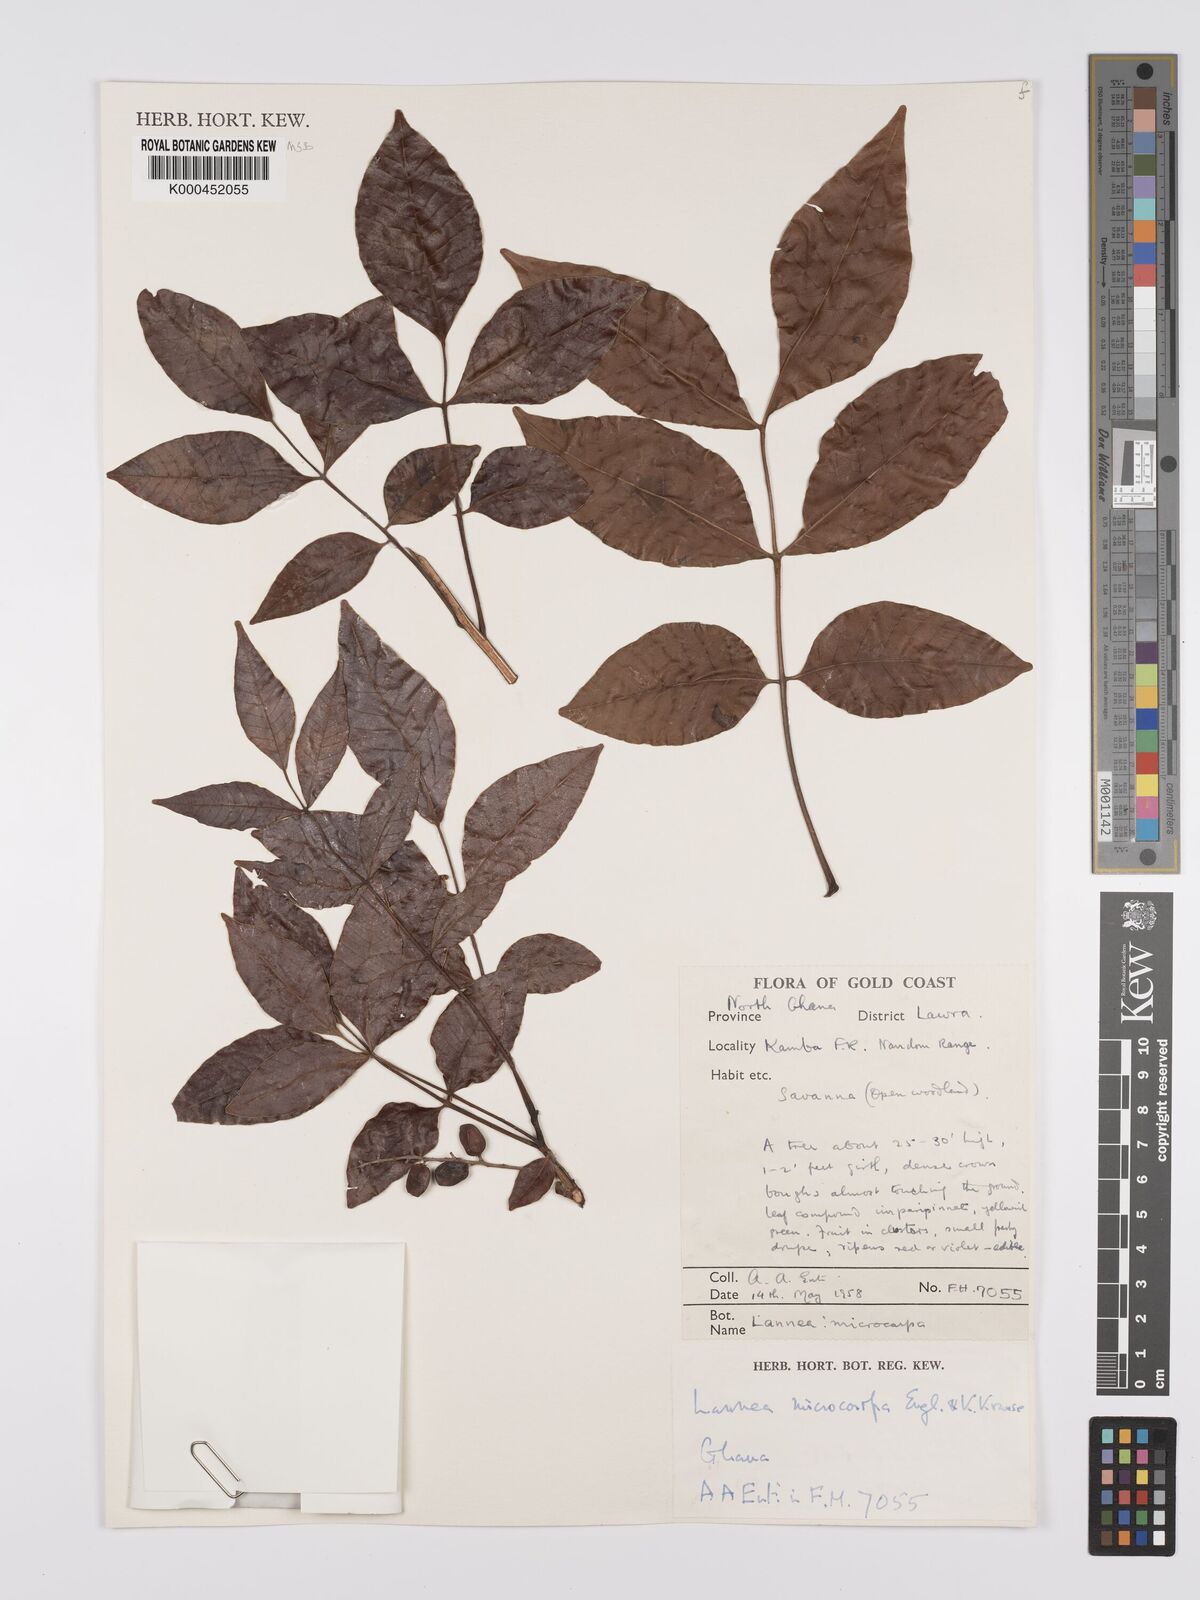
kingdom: Plantae
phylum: Tracheophyta
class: Magnoliopsida
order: Sapindales
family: Anacardiaceae
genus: Lannea
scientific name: Lannea microcarpa
